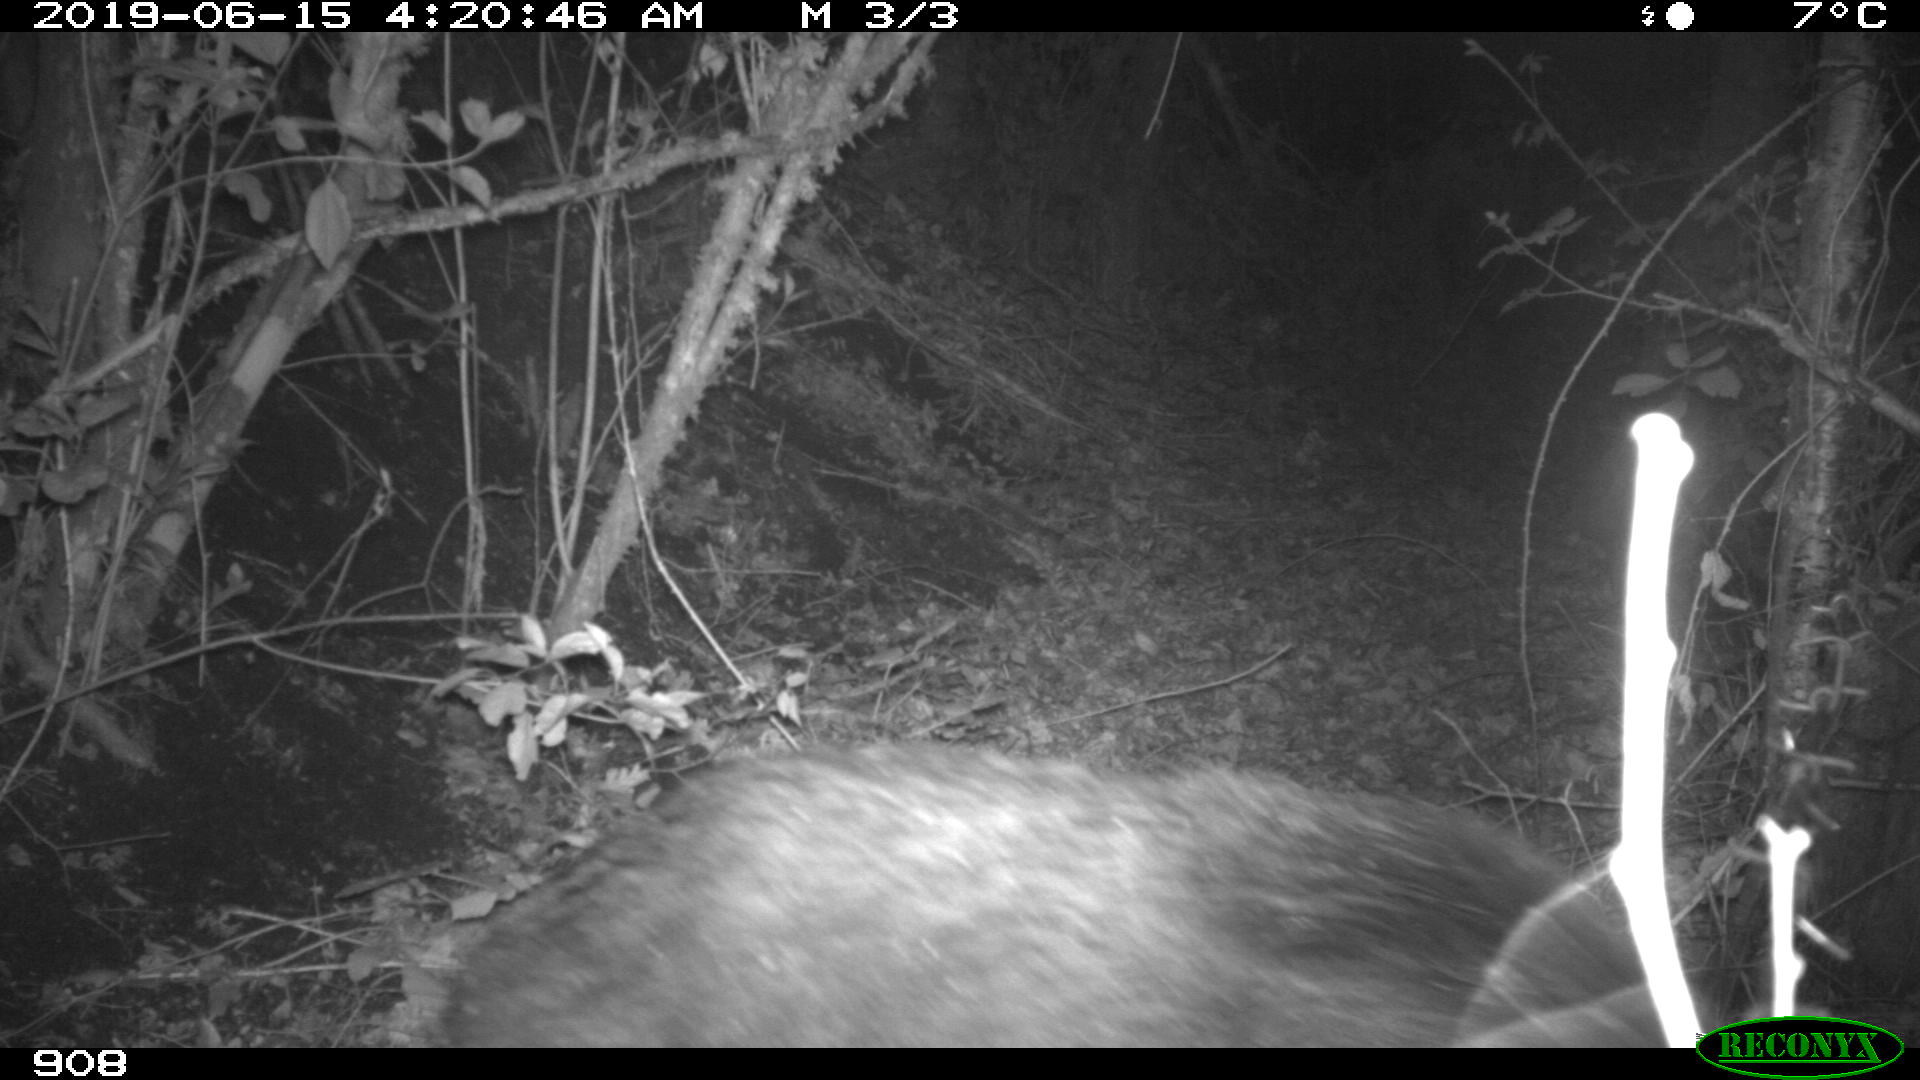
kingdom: Animalia
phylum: Chordata
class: Mammalia
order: Artiodactyla
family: Cervidae
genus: Capreolus
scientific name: Capreolus capreolus
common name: Western roe deer
